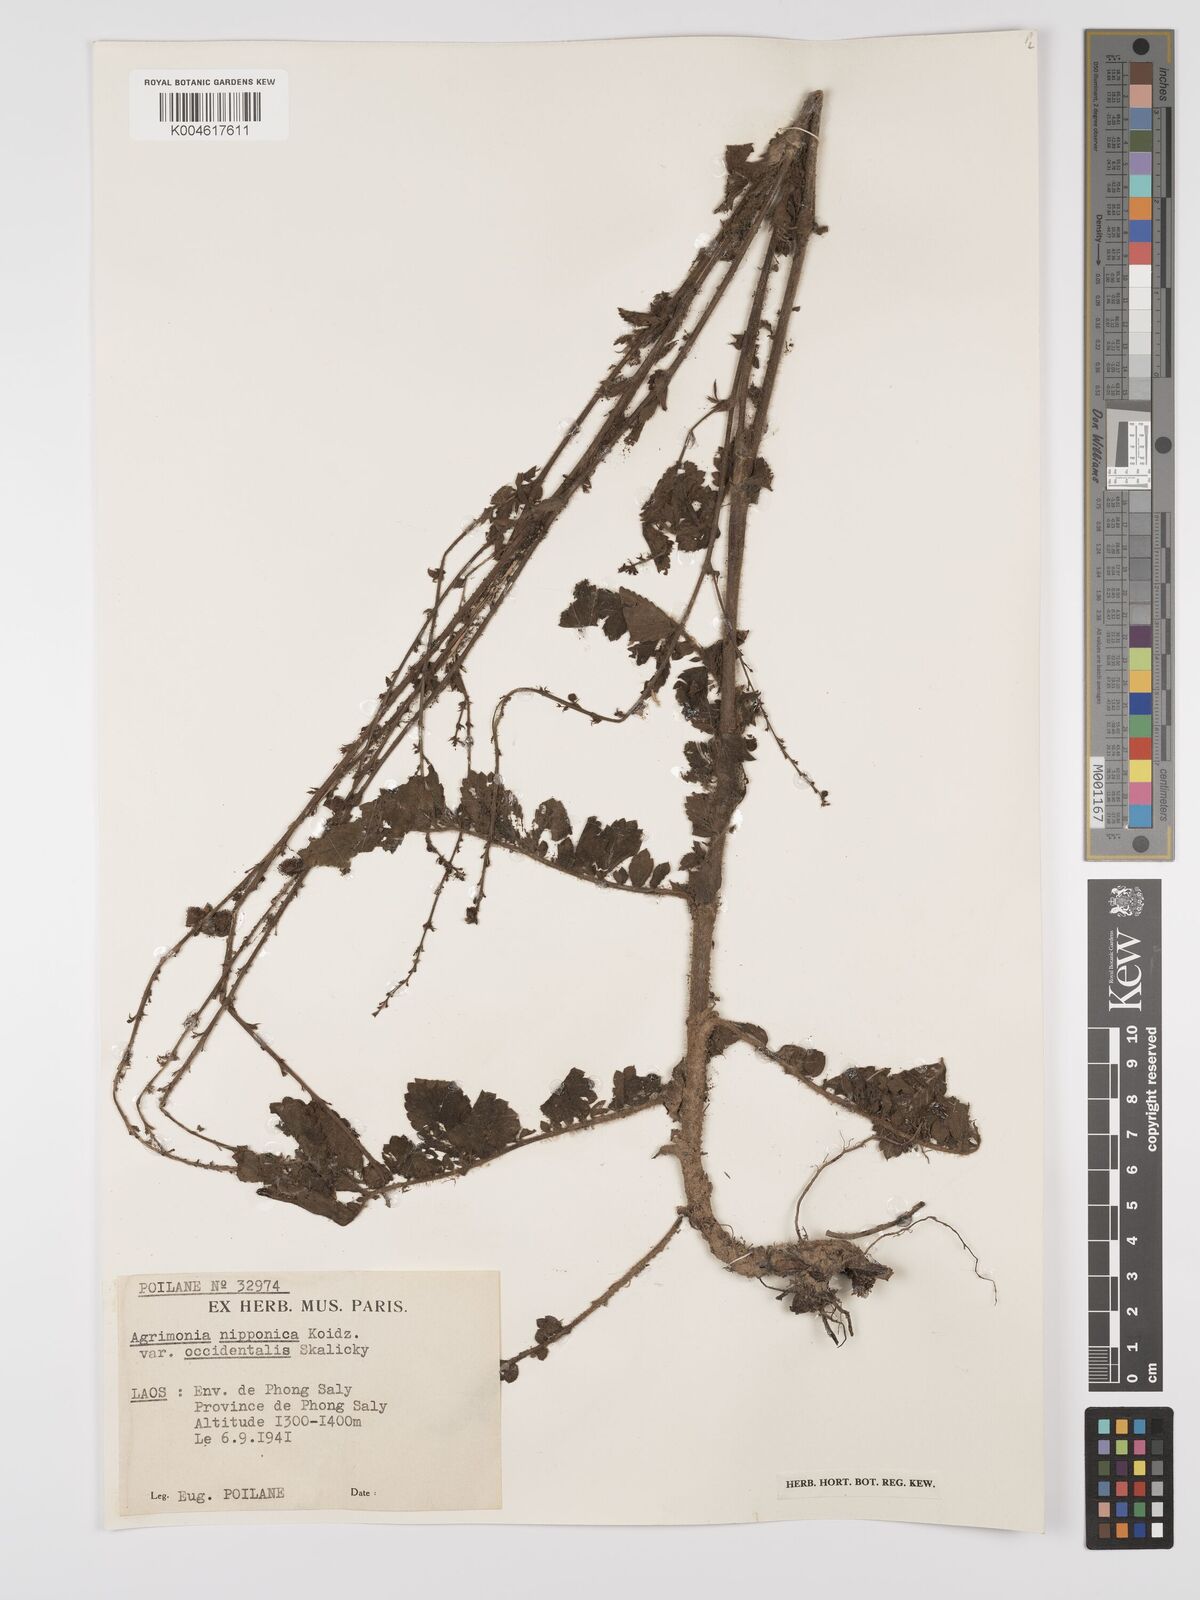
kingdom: Plantae
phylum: Tracheophyta
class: Magnoliopsida
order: Rosales
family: Rosaceae
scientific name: Rosaceae
